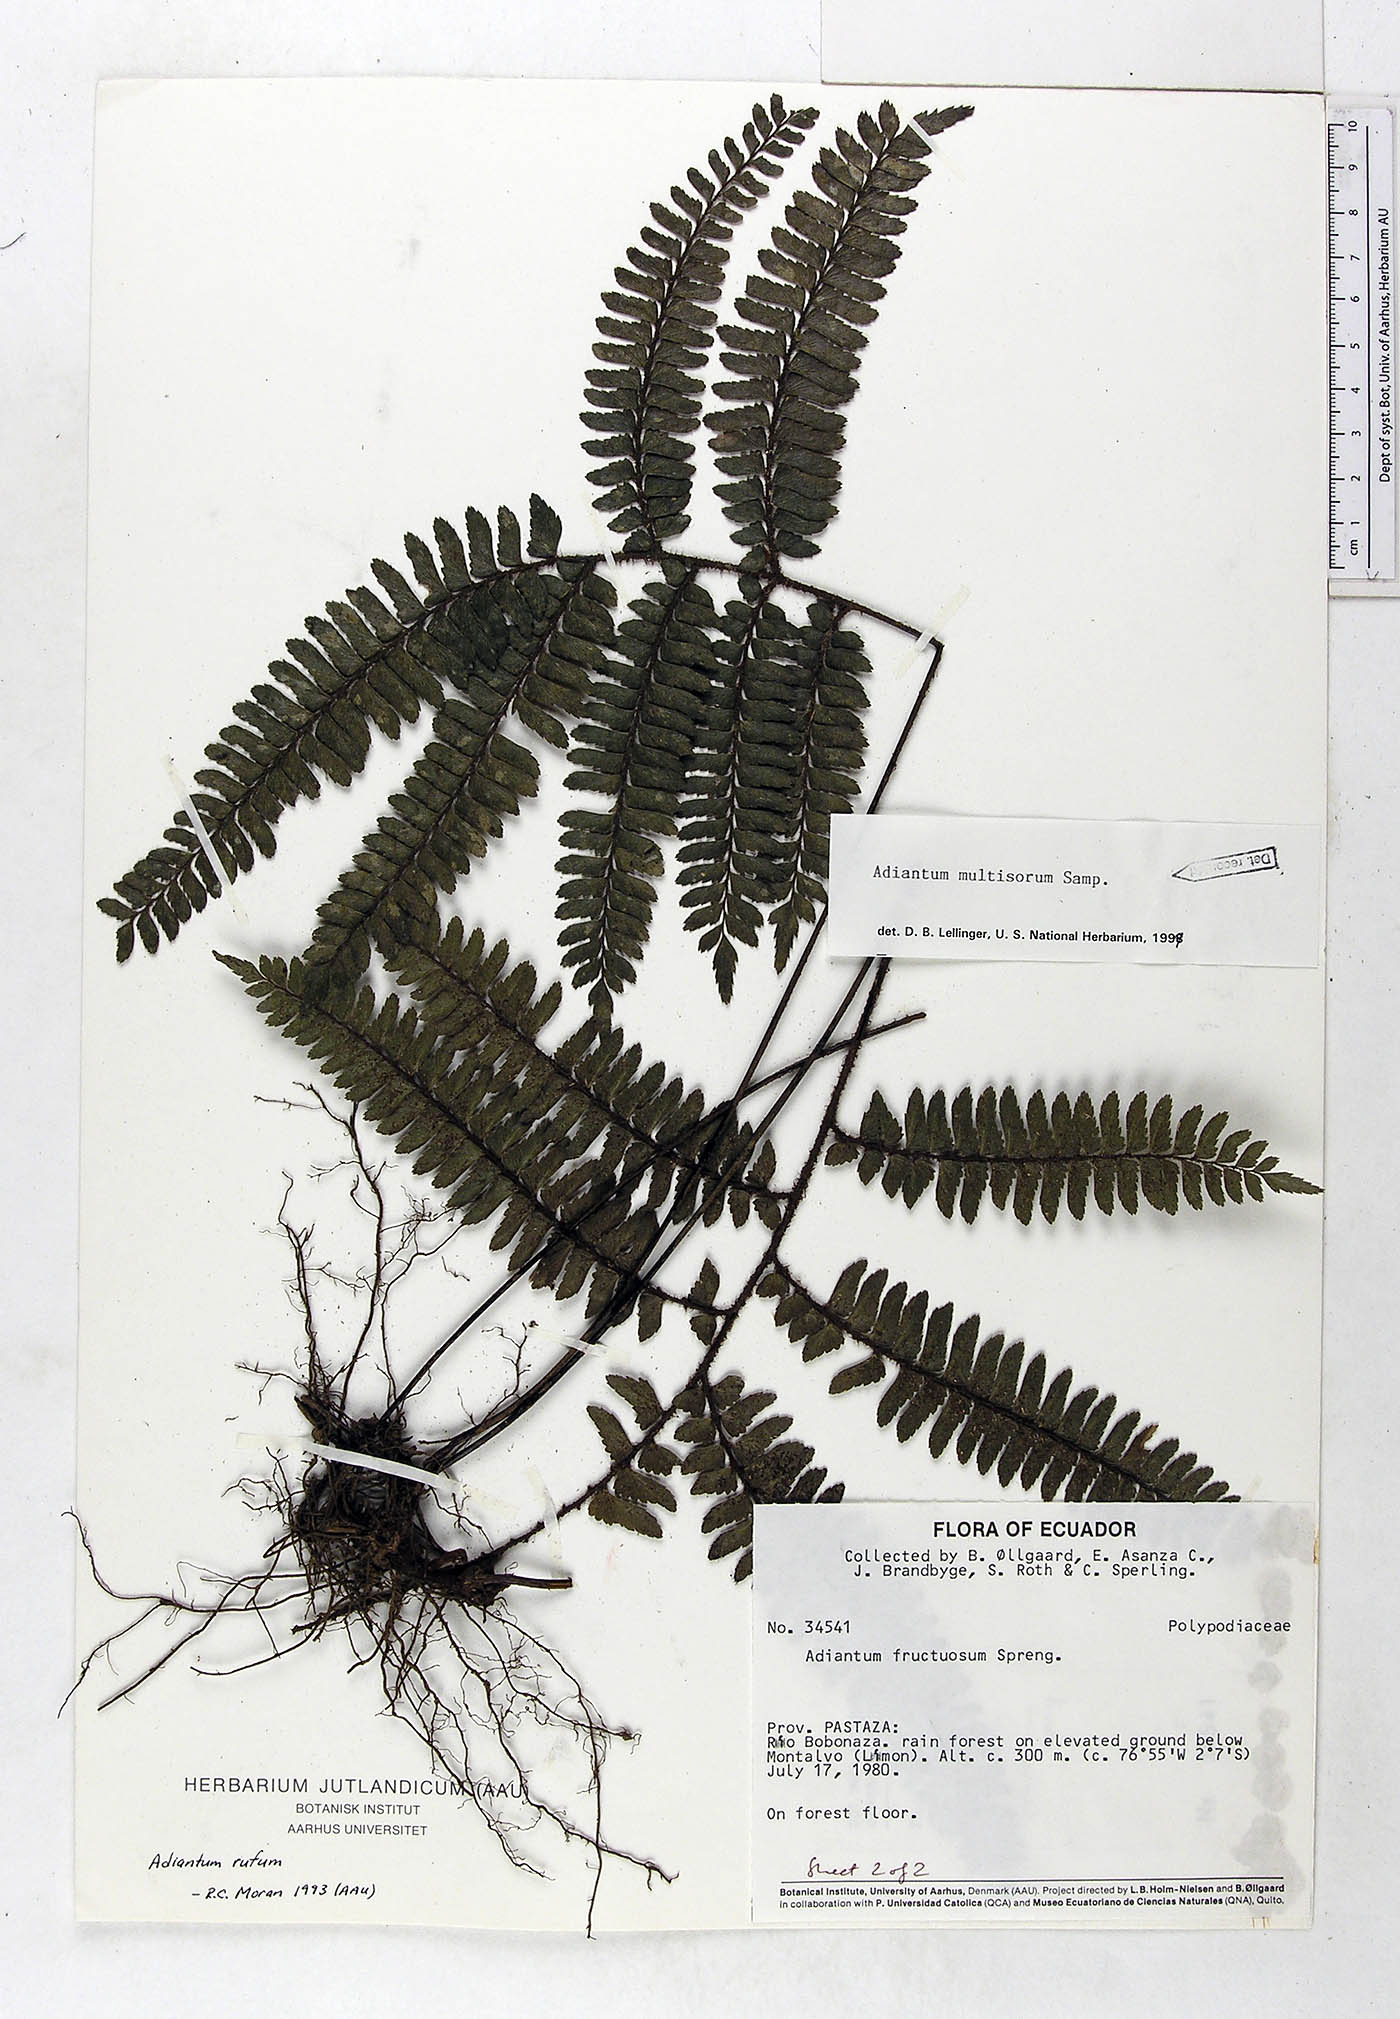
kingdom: Plantae
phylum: Tracheophyta
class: Polypodiopsida
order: Polypodiales
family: Pteridaceae
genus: Adiantum
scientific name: Adiantum tetraphyllum
